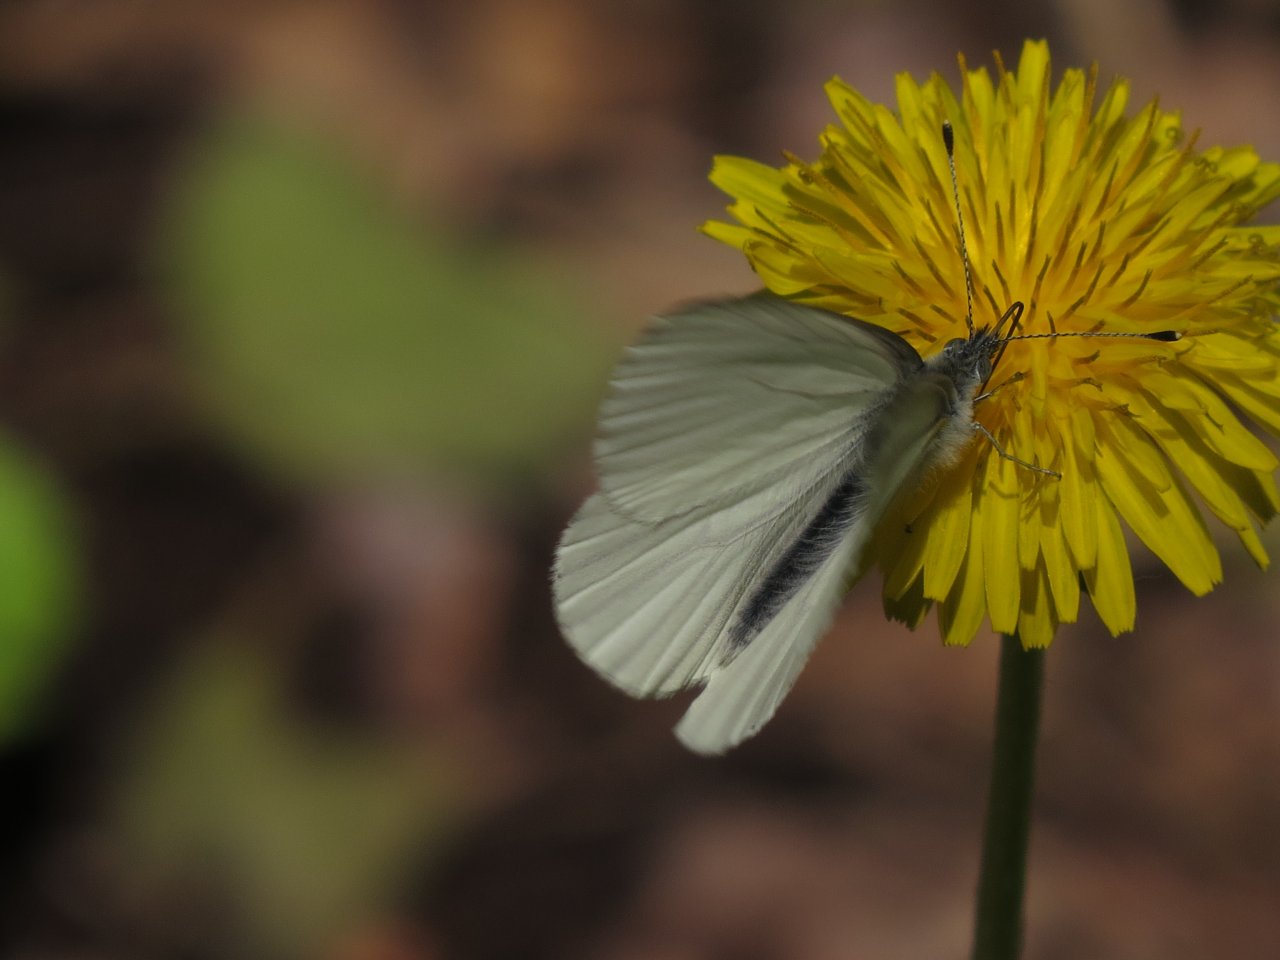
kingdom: Animalia
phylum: Arthropoda
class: Insecta
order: Lepidoptera
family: Pieridae
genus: Pieris
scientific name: Pieris oleracea
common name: Mustard White
